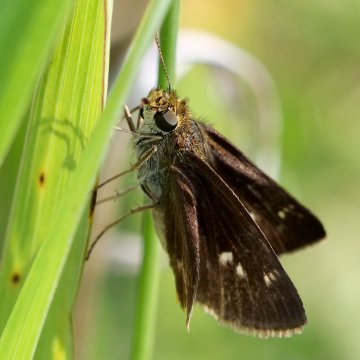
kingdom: Animalia
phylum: Arthropoda
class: Insecta
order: Lepidoptera
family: Hesperiidae
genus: Euphyes
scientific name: Euphyes vestris
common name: Dun Skipper
